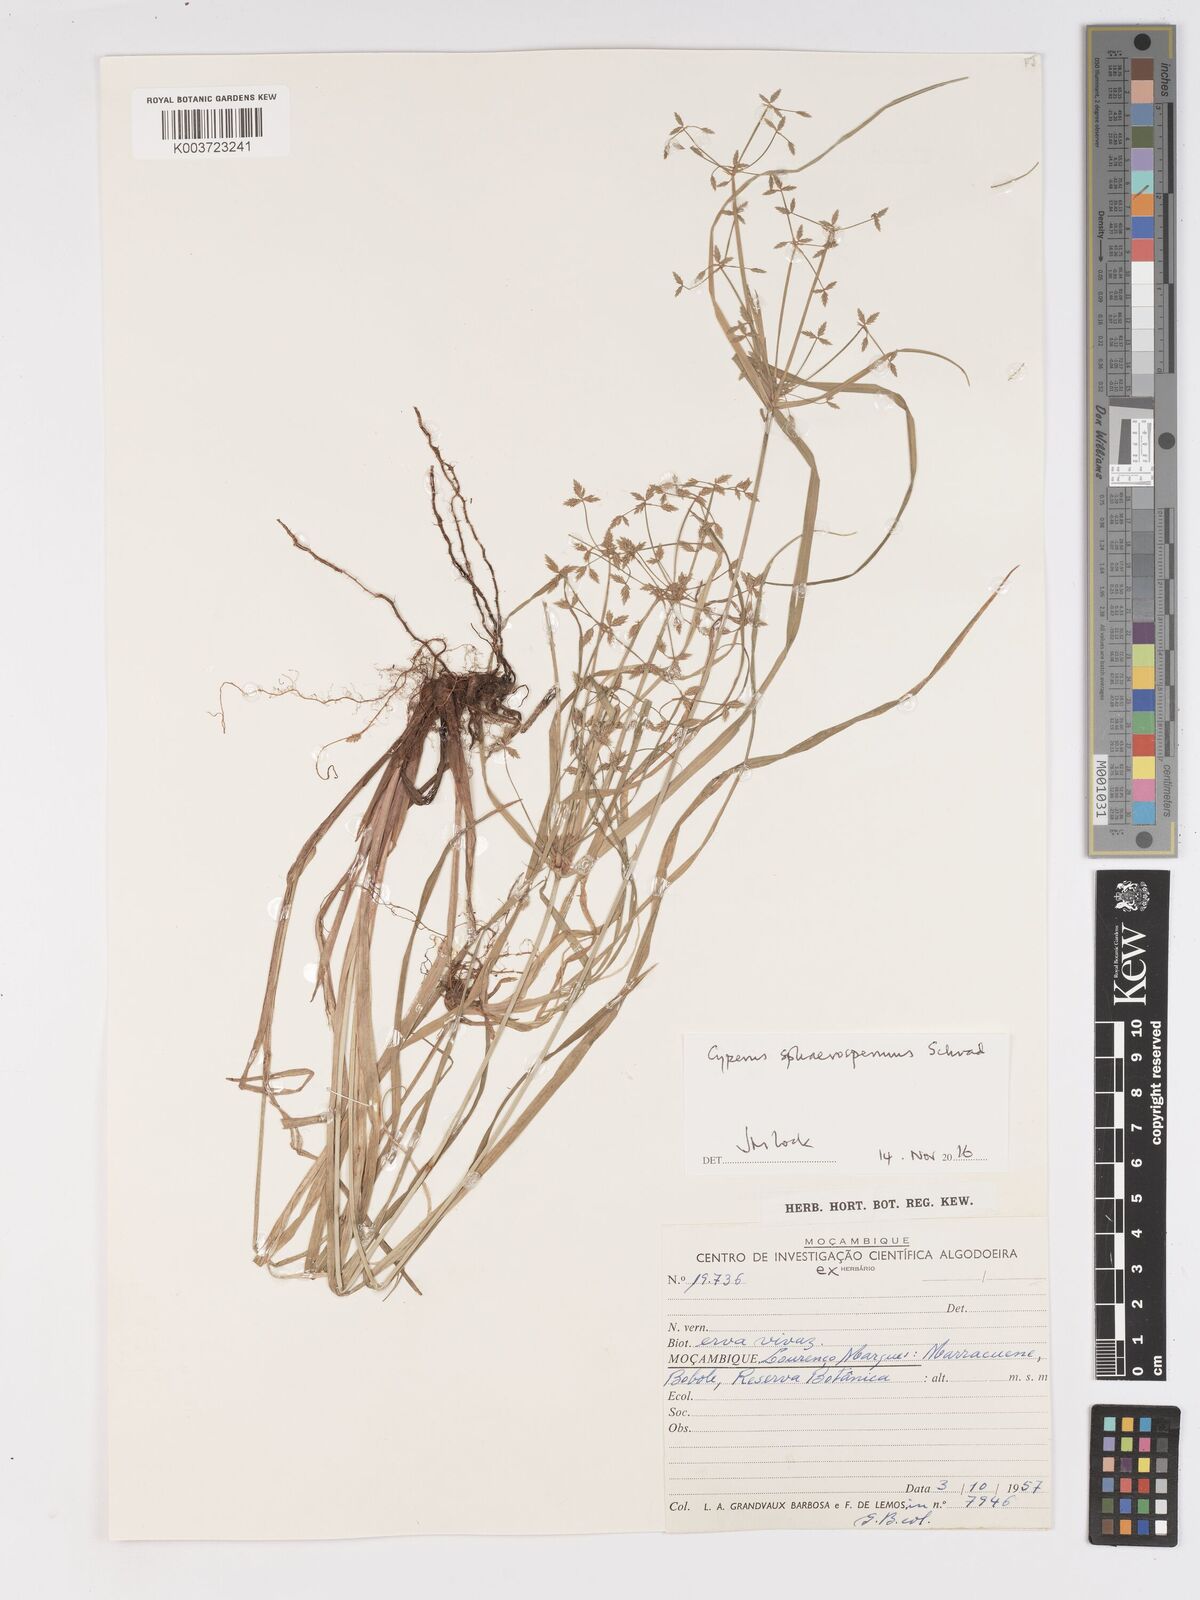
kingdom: Plantae
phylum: Tracheophyta
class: Liliopsida
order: Poales
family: Cyperaceae
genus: Cyperus
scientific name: Cyperus denudatus
